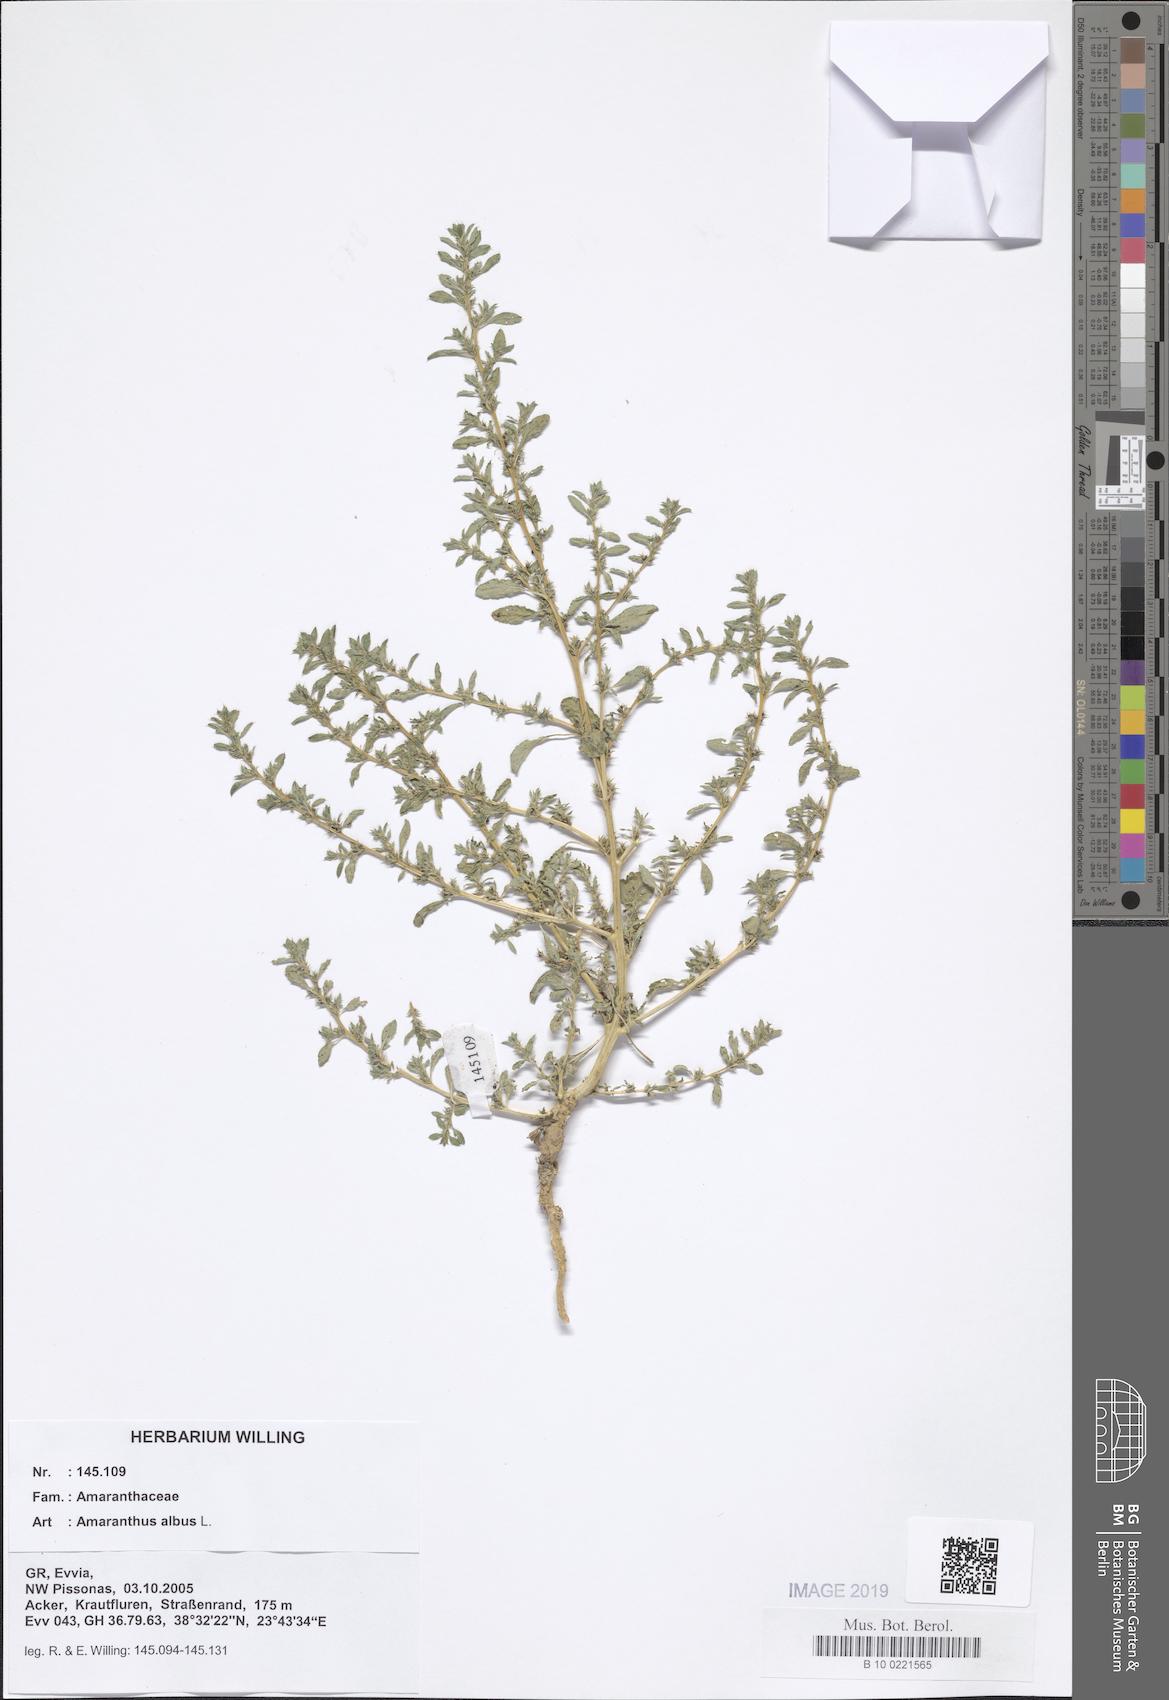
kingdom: Plantae
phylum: Tracheophyta
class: Magnoliopsida
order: Caryophyllales
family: Amaranthaceae
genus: Amaranthus
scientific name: Amaranthus albus
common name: White pigweed
